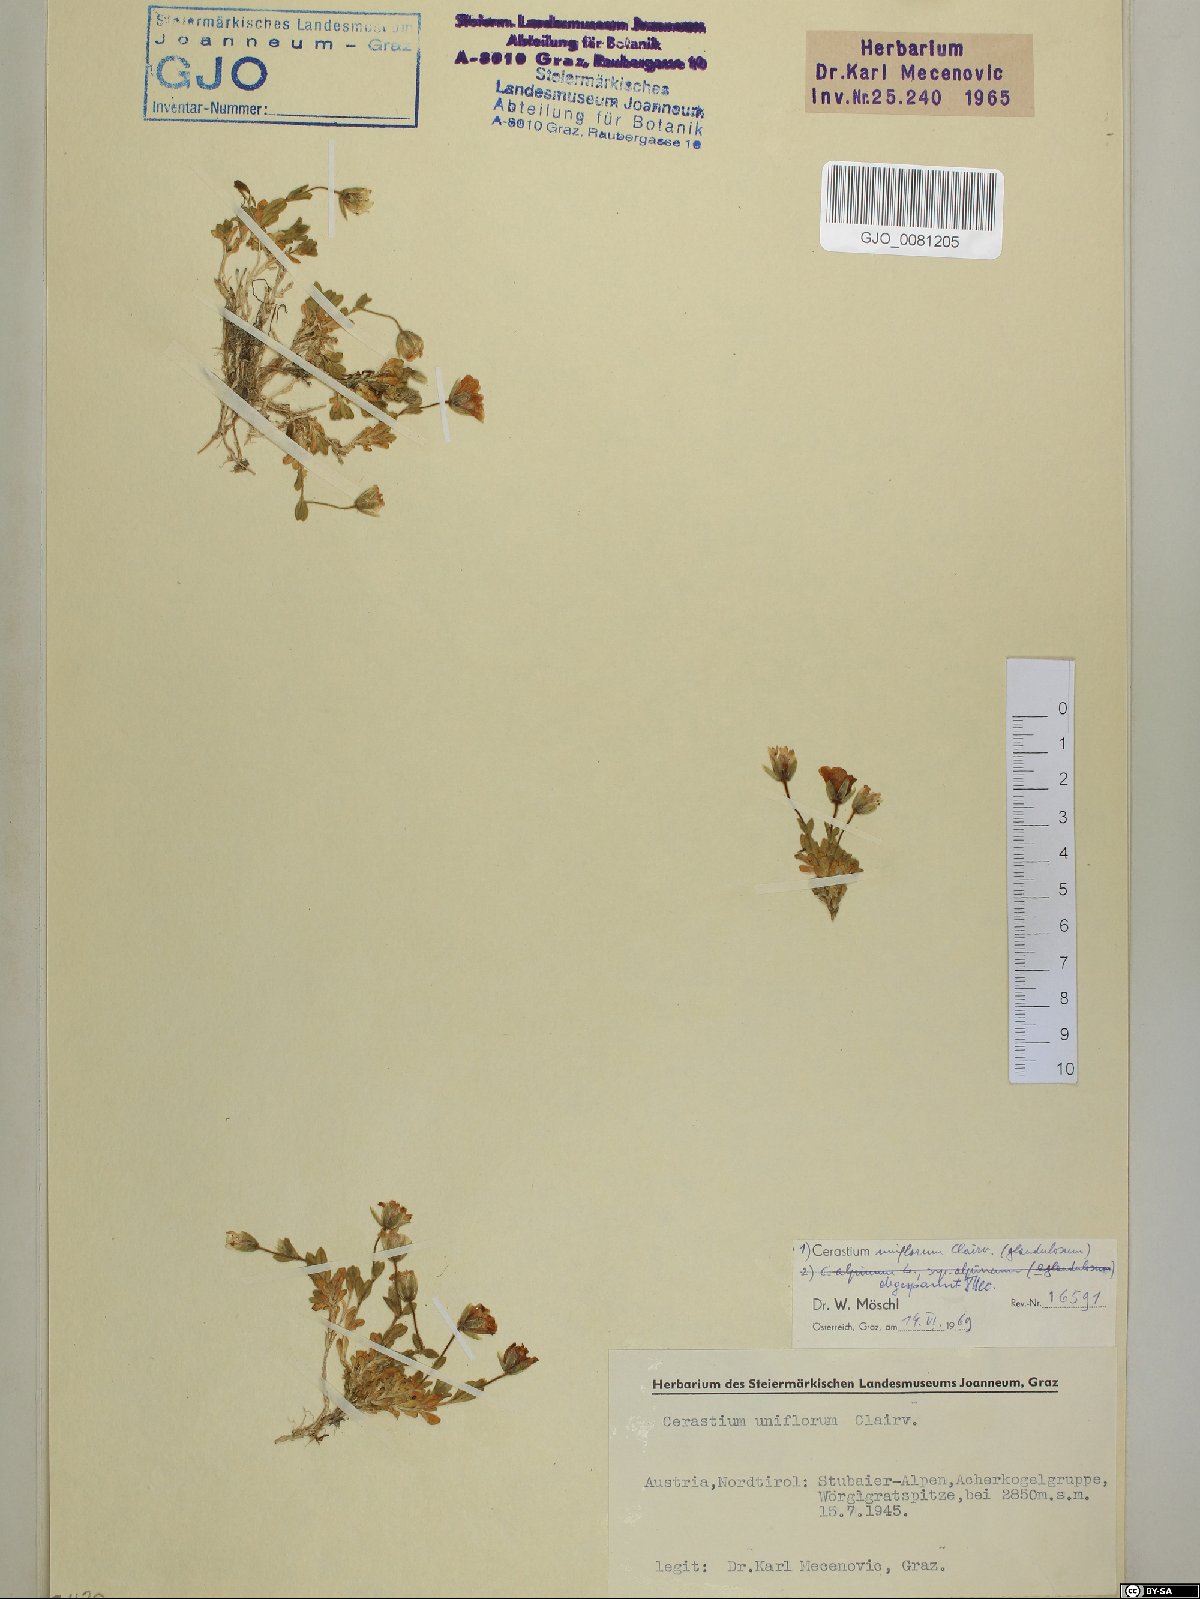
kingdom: Plantae
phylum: Tracheophyta
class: Magnoliopsida
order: Caryophyllales
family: Caryophyllaceae
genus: Cerastium
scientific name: Cerastium uniflorum
